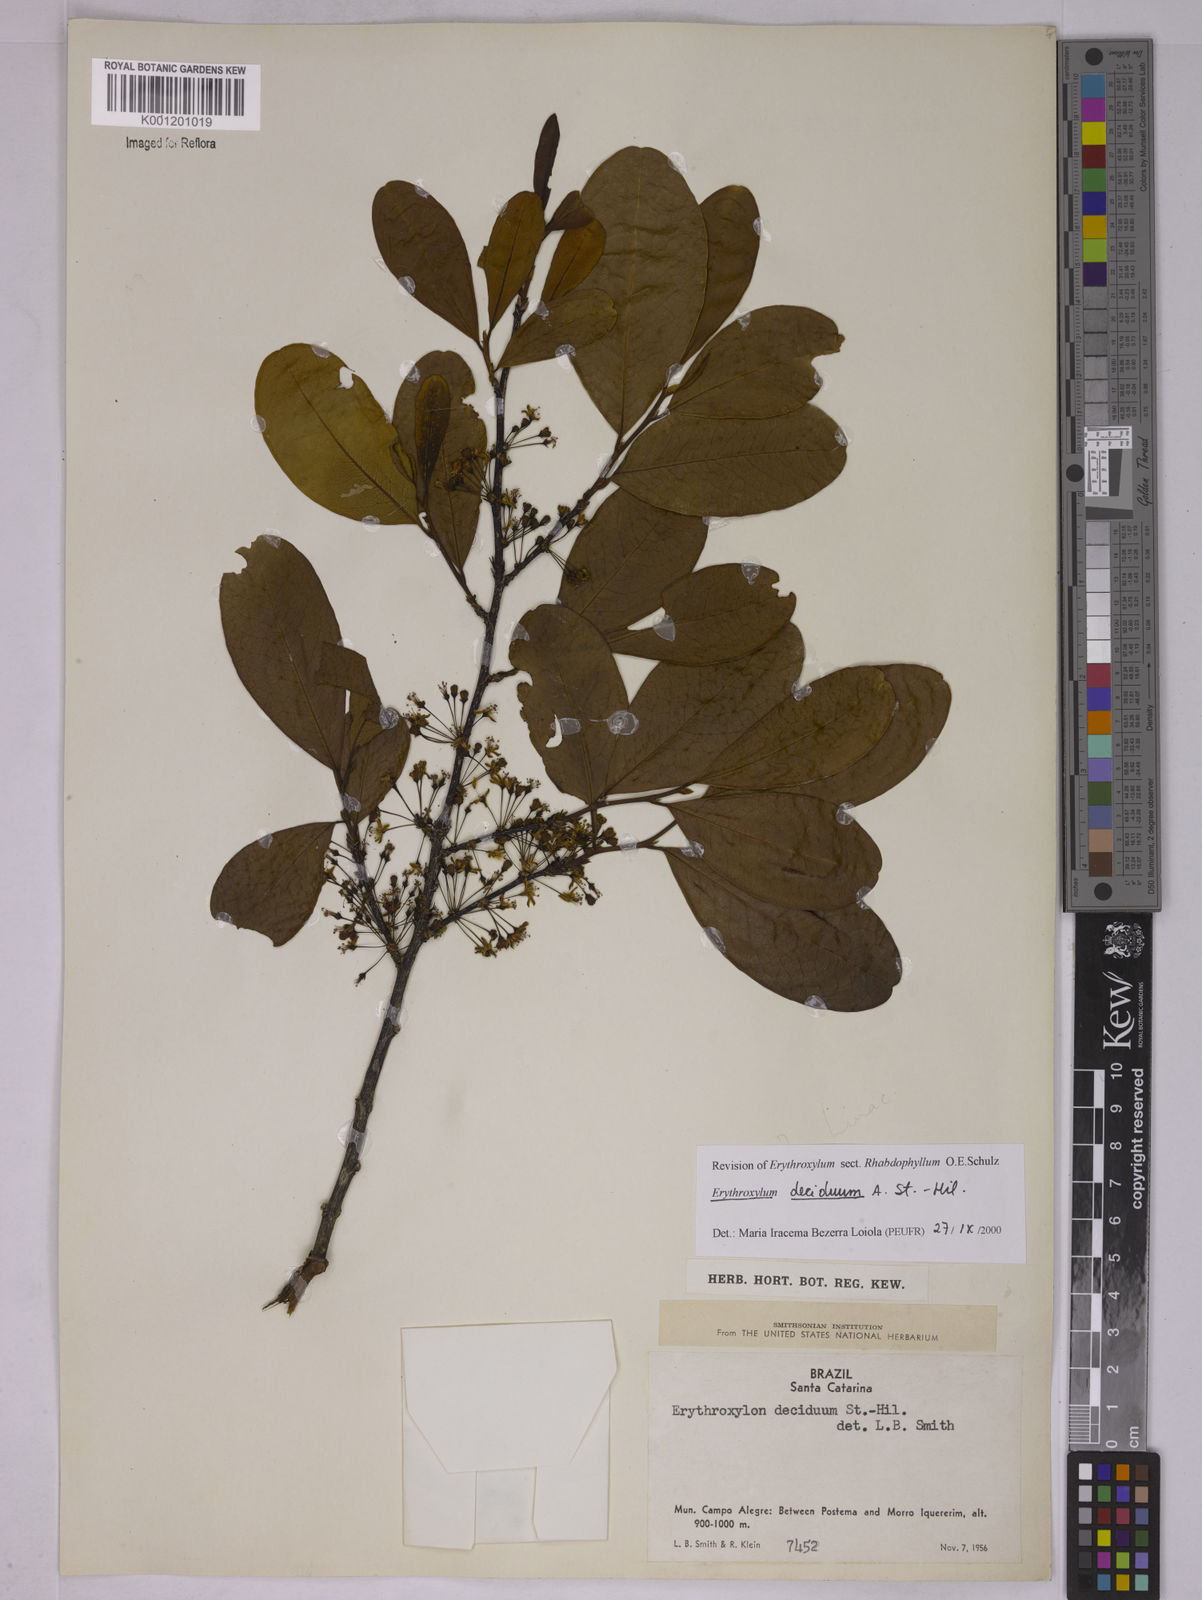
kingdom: Plantae
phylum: Tracheophyta
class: Magnoliopsida
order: Malpighiales
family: Erythroxylaceae
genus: Erythroxylum
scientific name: Erythroxylum deciduum
